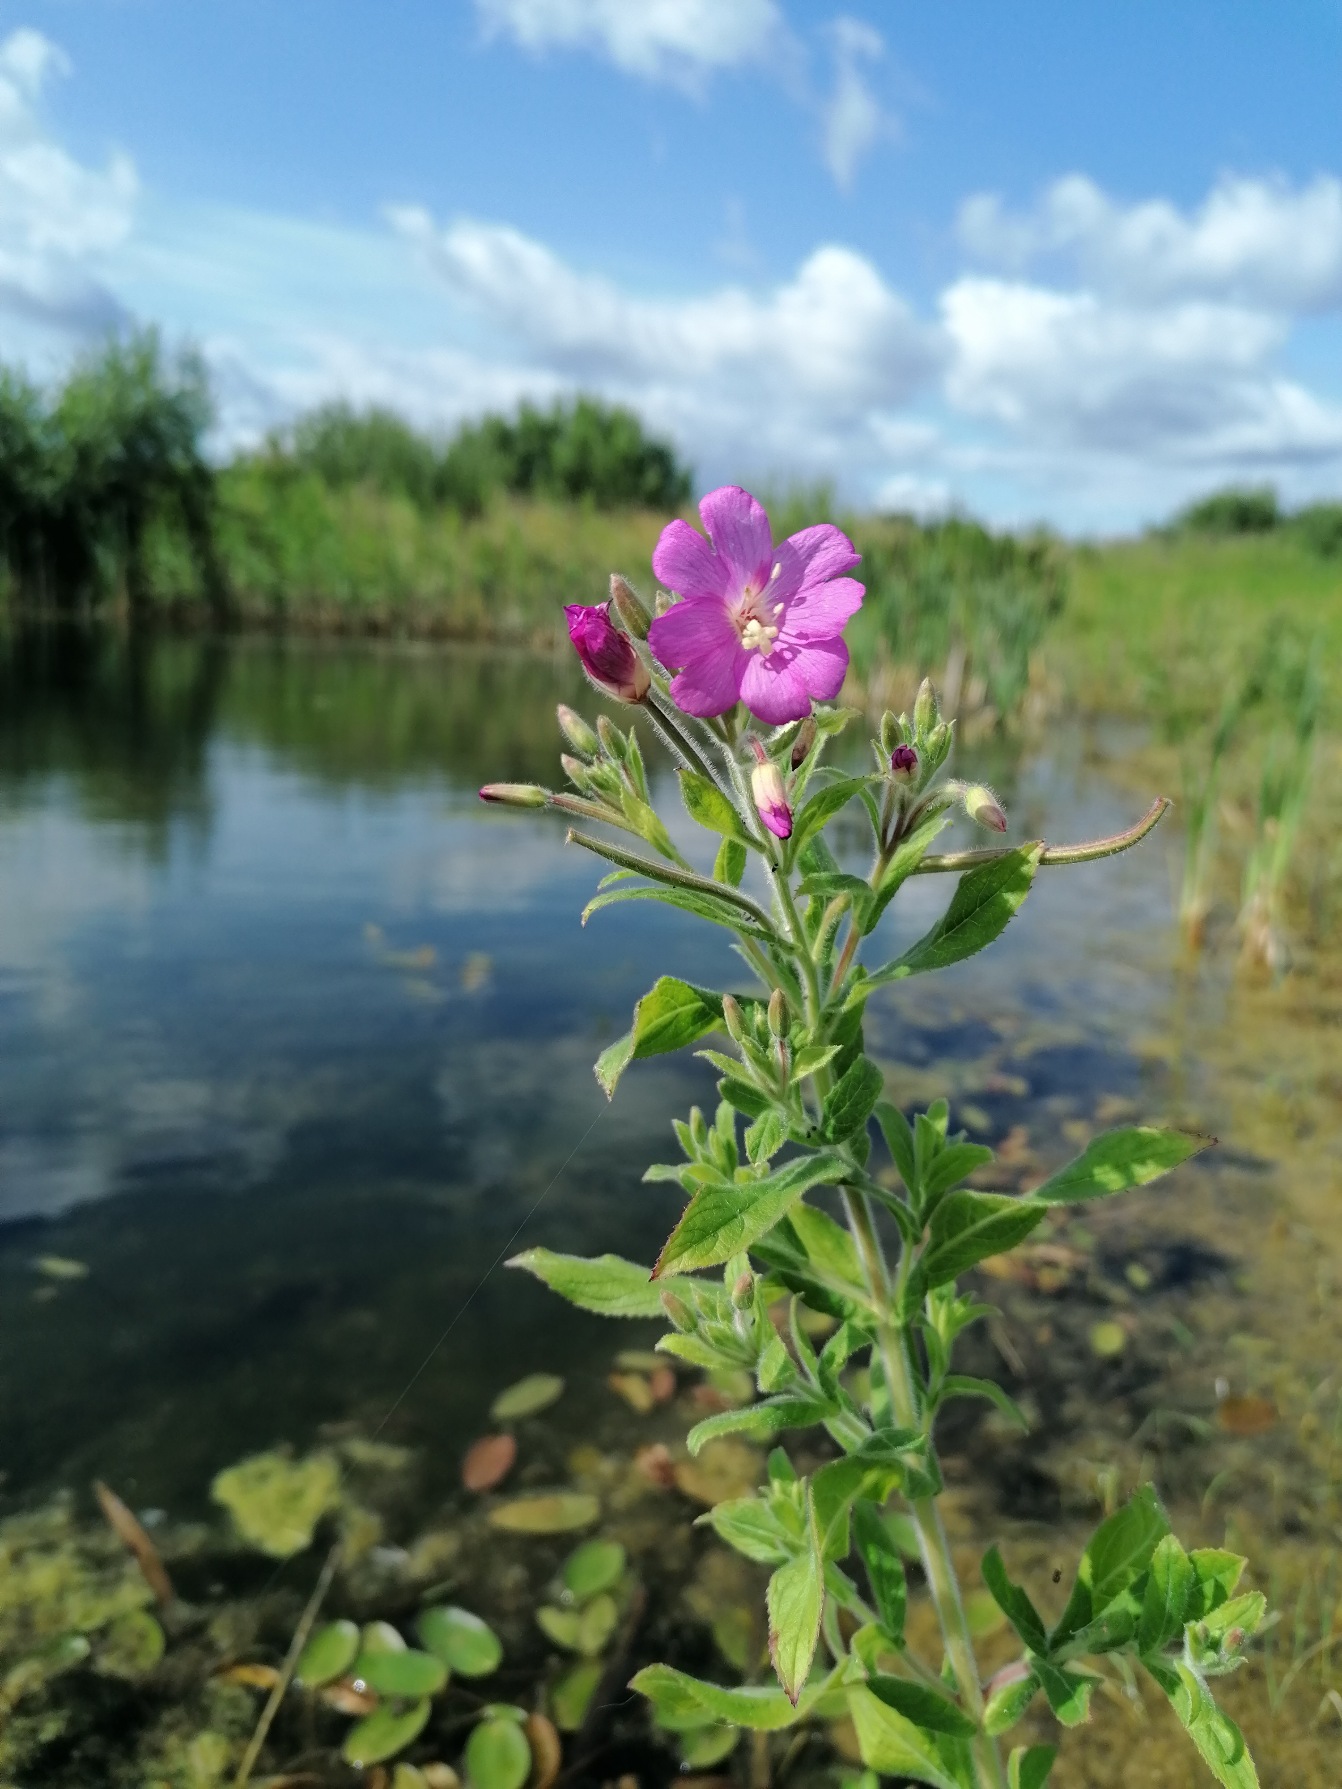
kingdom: Plantae
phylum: Tracheophyta
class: Magnoliopsida
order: Myrtales
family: Onagraceae
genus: Epilobium
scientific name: Epilobium hirsutum
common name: Lådden dueurt
